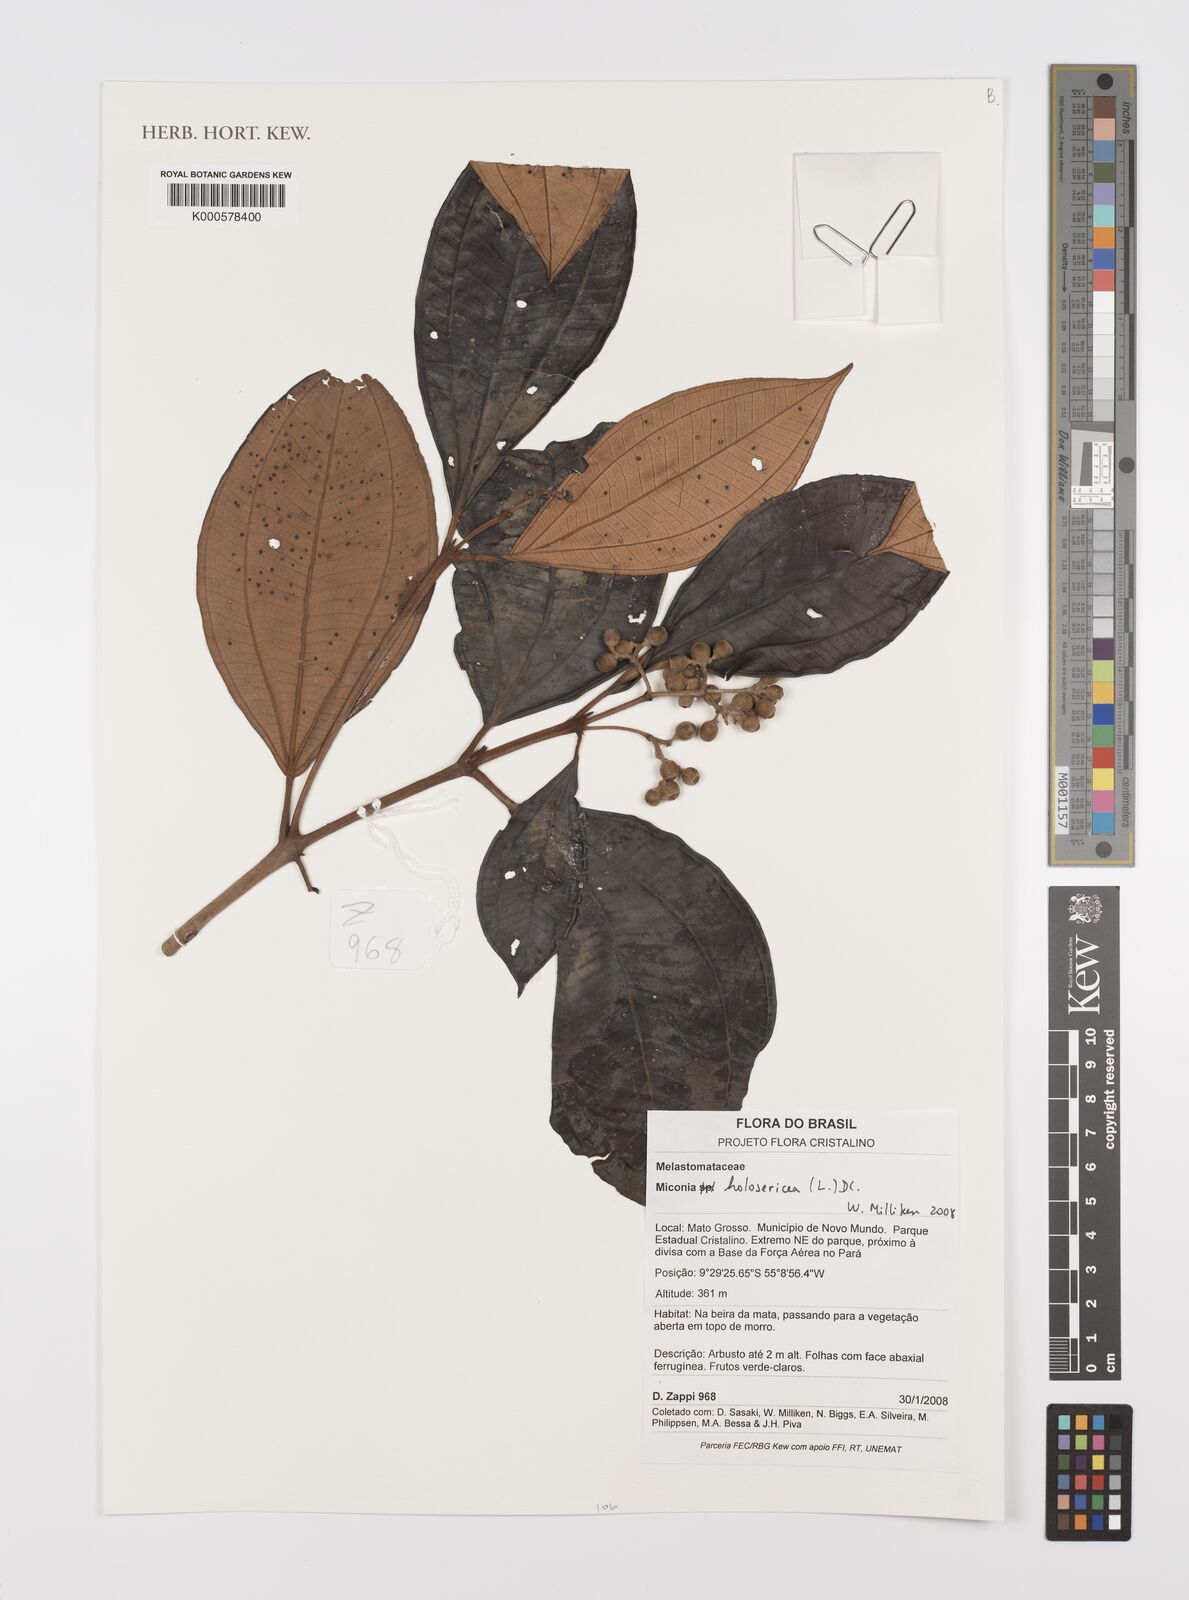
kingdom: Plantae
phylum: Tracheophyta
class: Magnoliopsida
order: Myrtales
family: Melastomataceae
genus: Miconia
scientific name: Miconia holosericea
